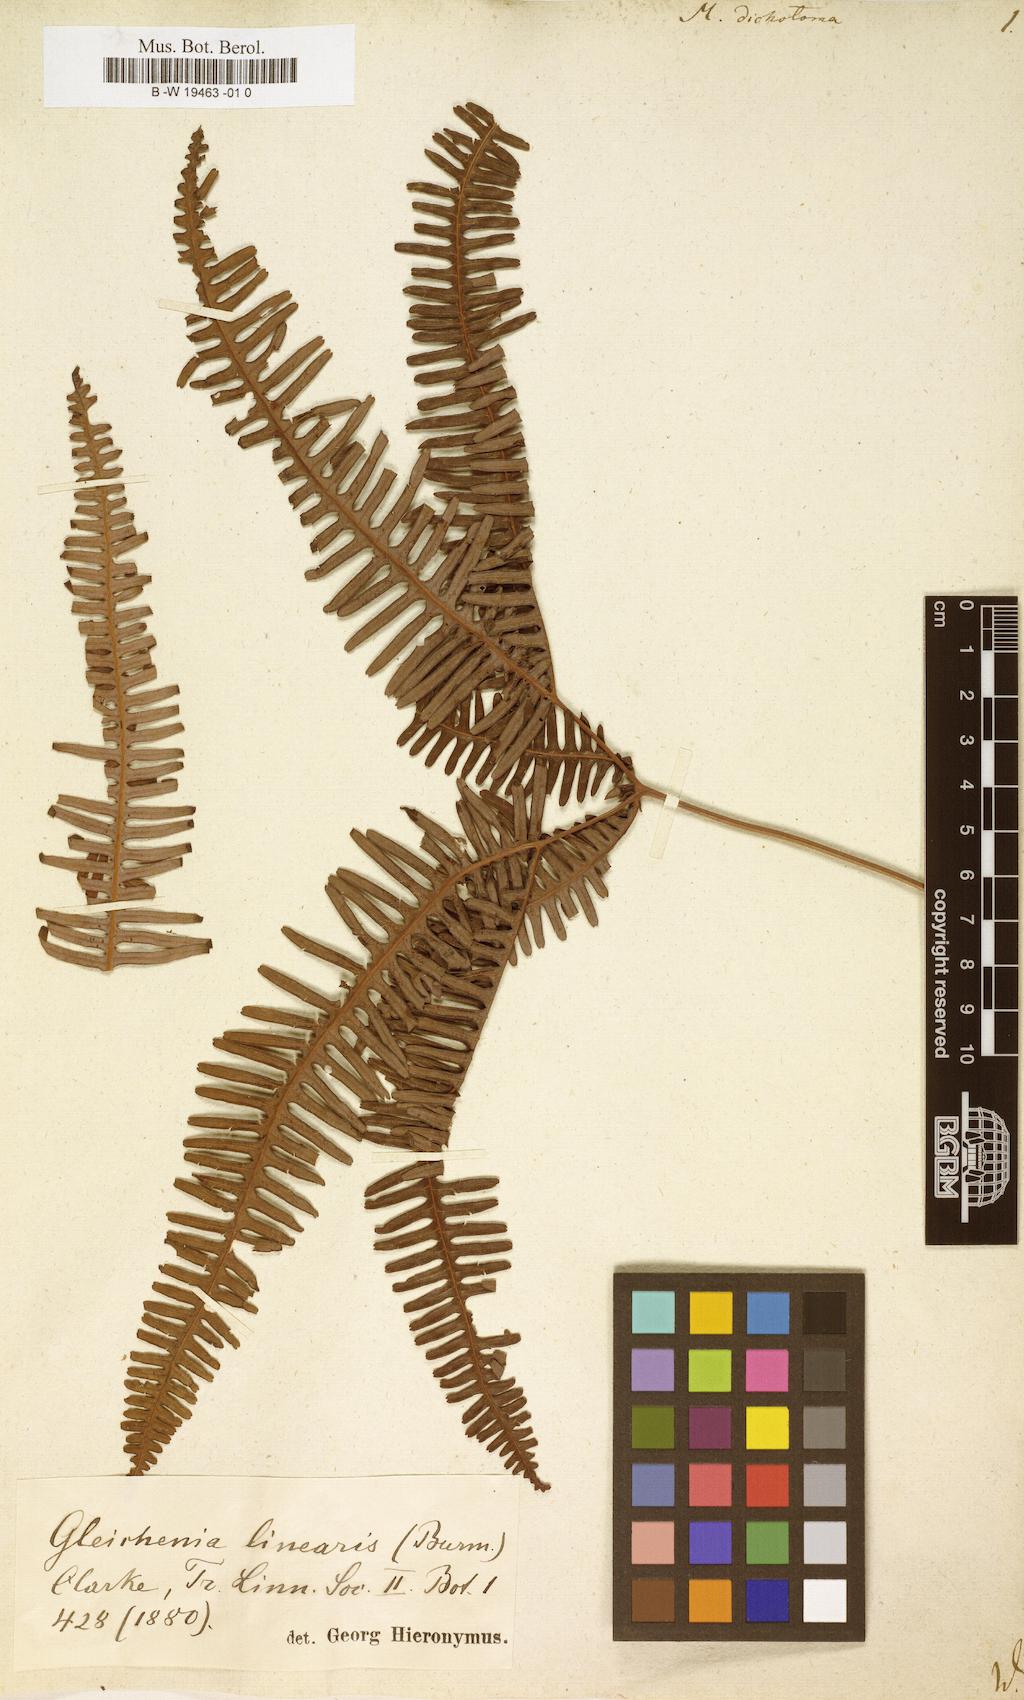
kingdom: Plantae
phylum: Tracheophyta
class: Polypodiopsida
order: Gleicheniales
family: Gleicheniaceae
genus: Dicranopteris
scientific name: Dicranopteris pedata
